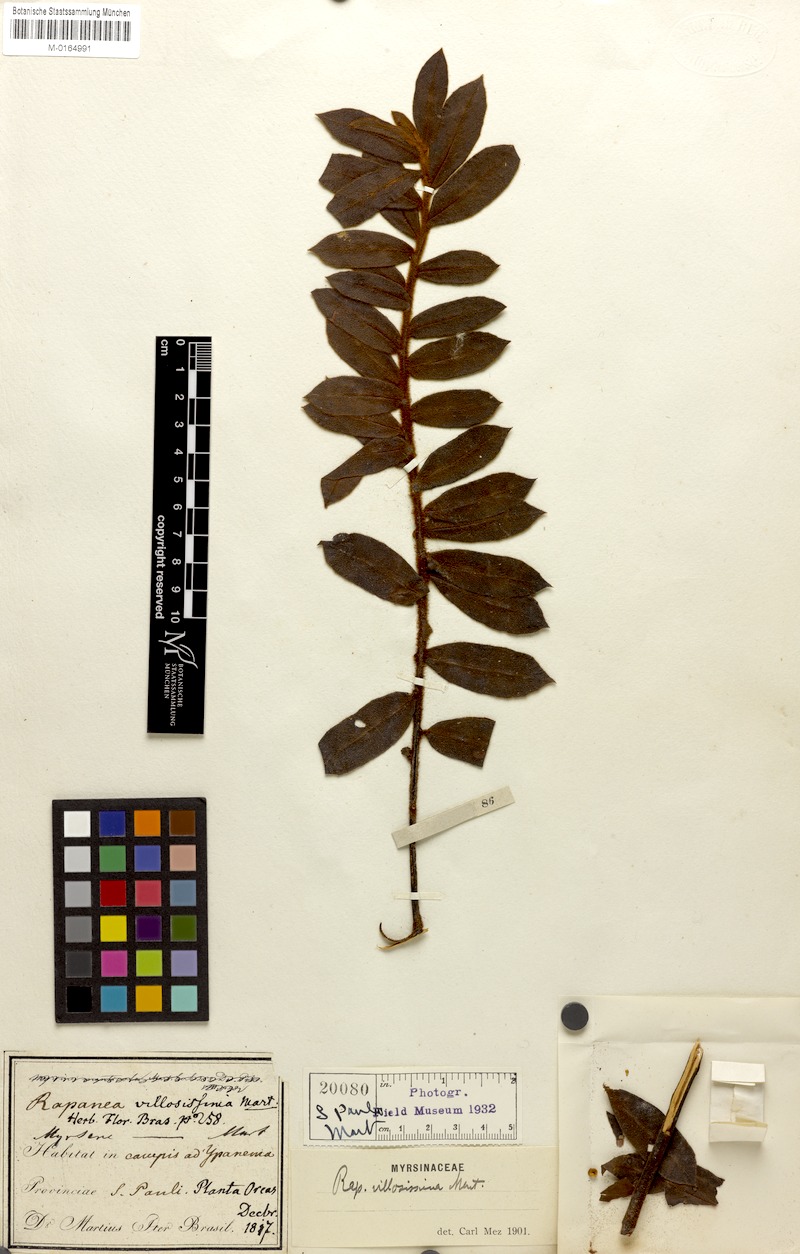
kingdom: Plantae
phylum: Tracheophyta
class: Magnoliopsida
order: Ericales
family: Primulaceae
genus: Myrsine
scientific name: Myrsine villosissima
